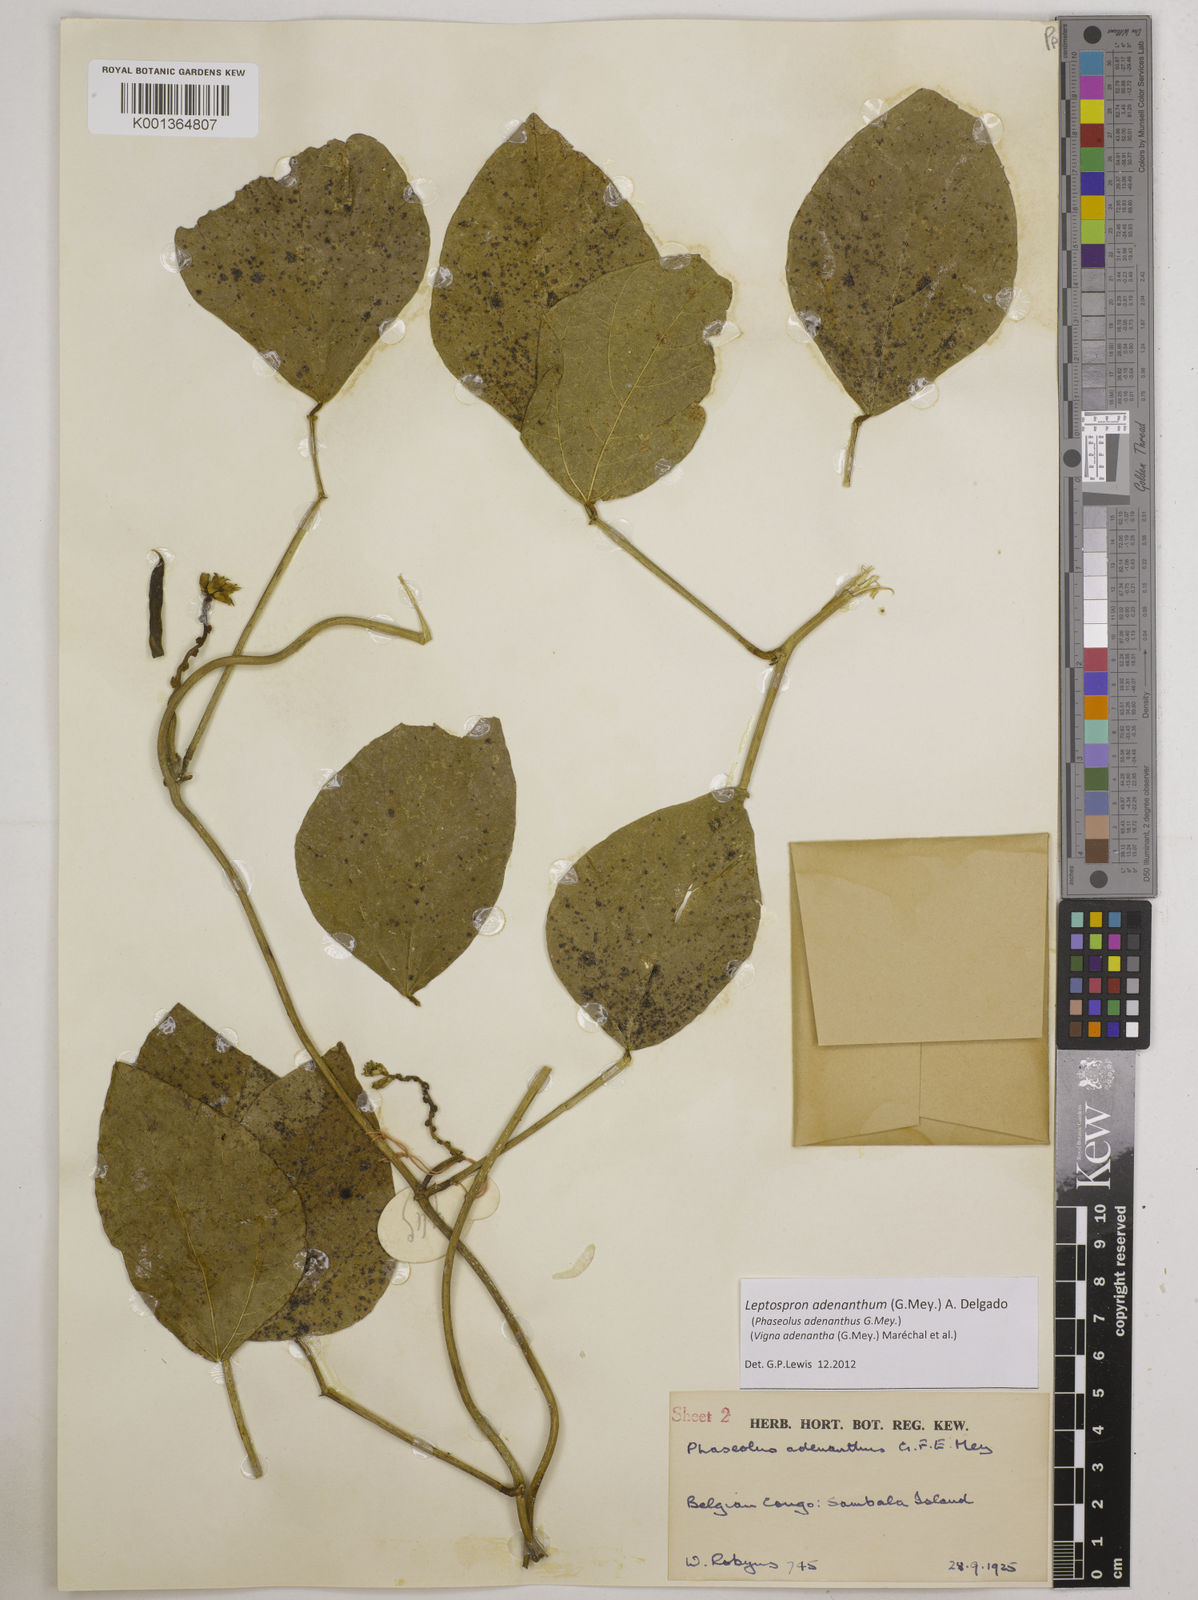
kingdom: Plantae
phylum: Tracheophyta
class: Magnoliopsida
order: Fabales
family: Fabaceae
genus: Leptospron
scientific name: Leptospron adenanthum
